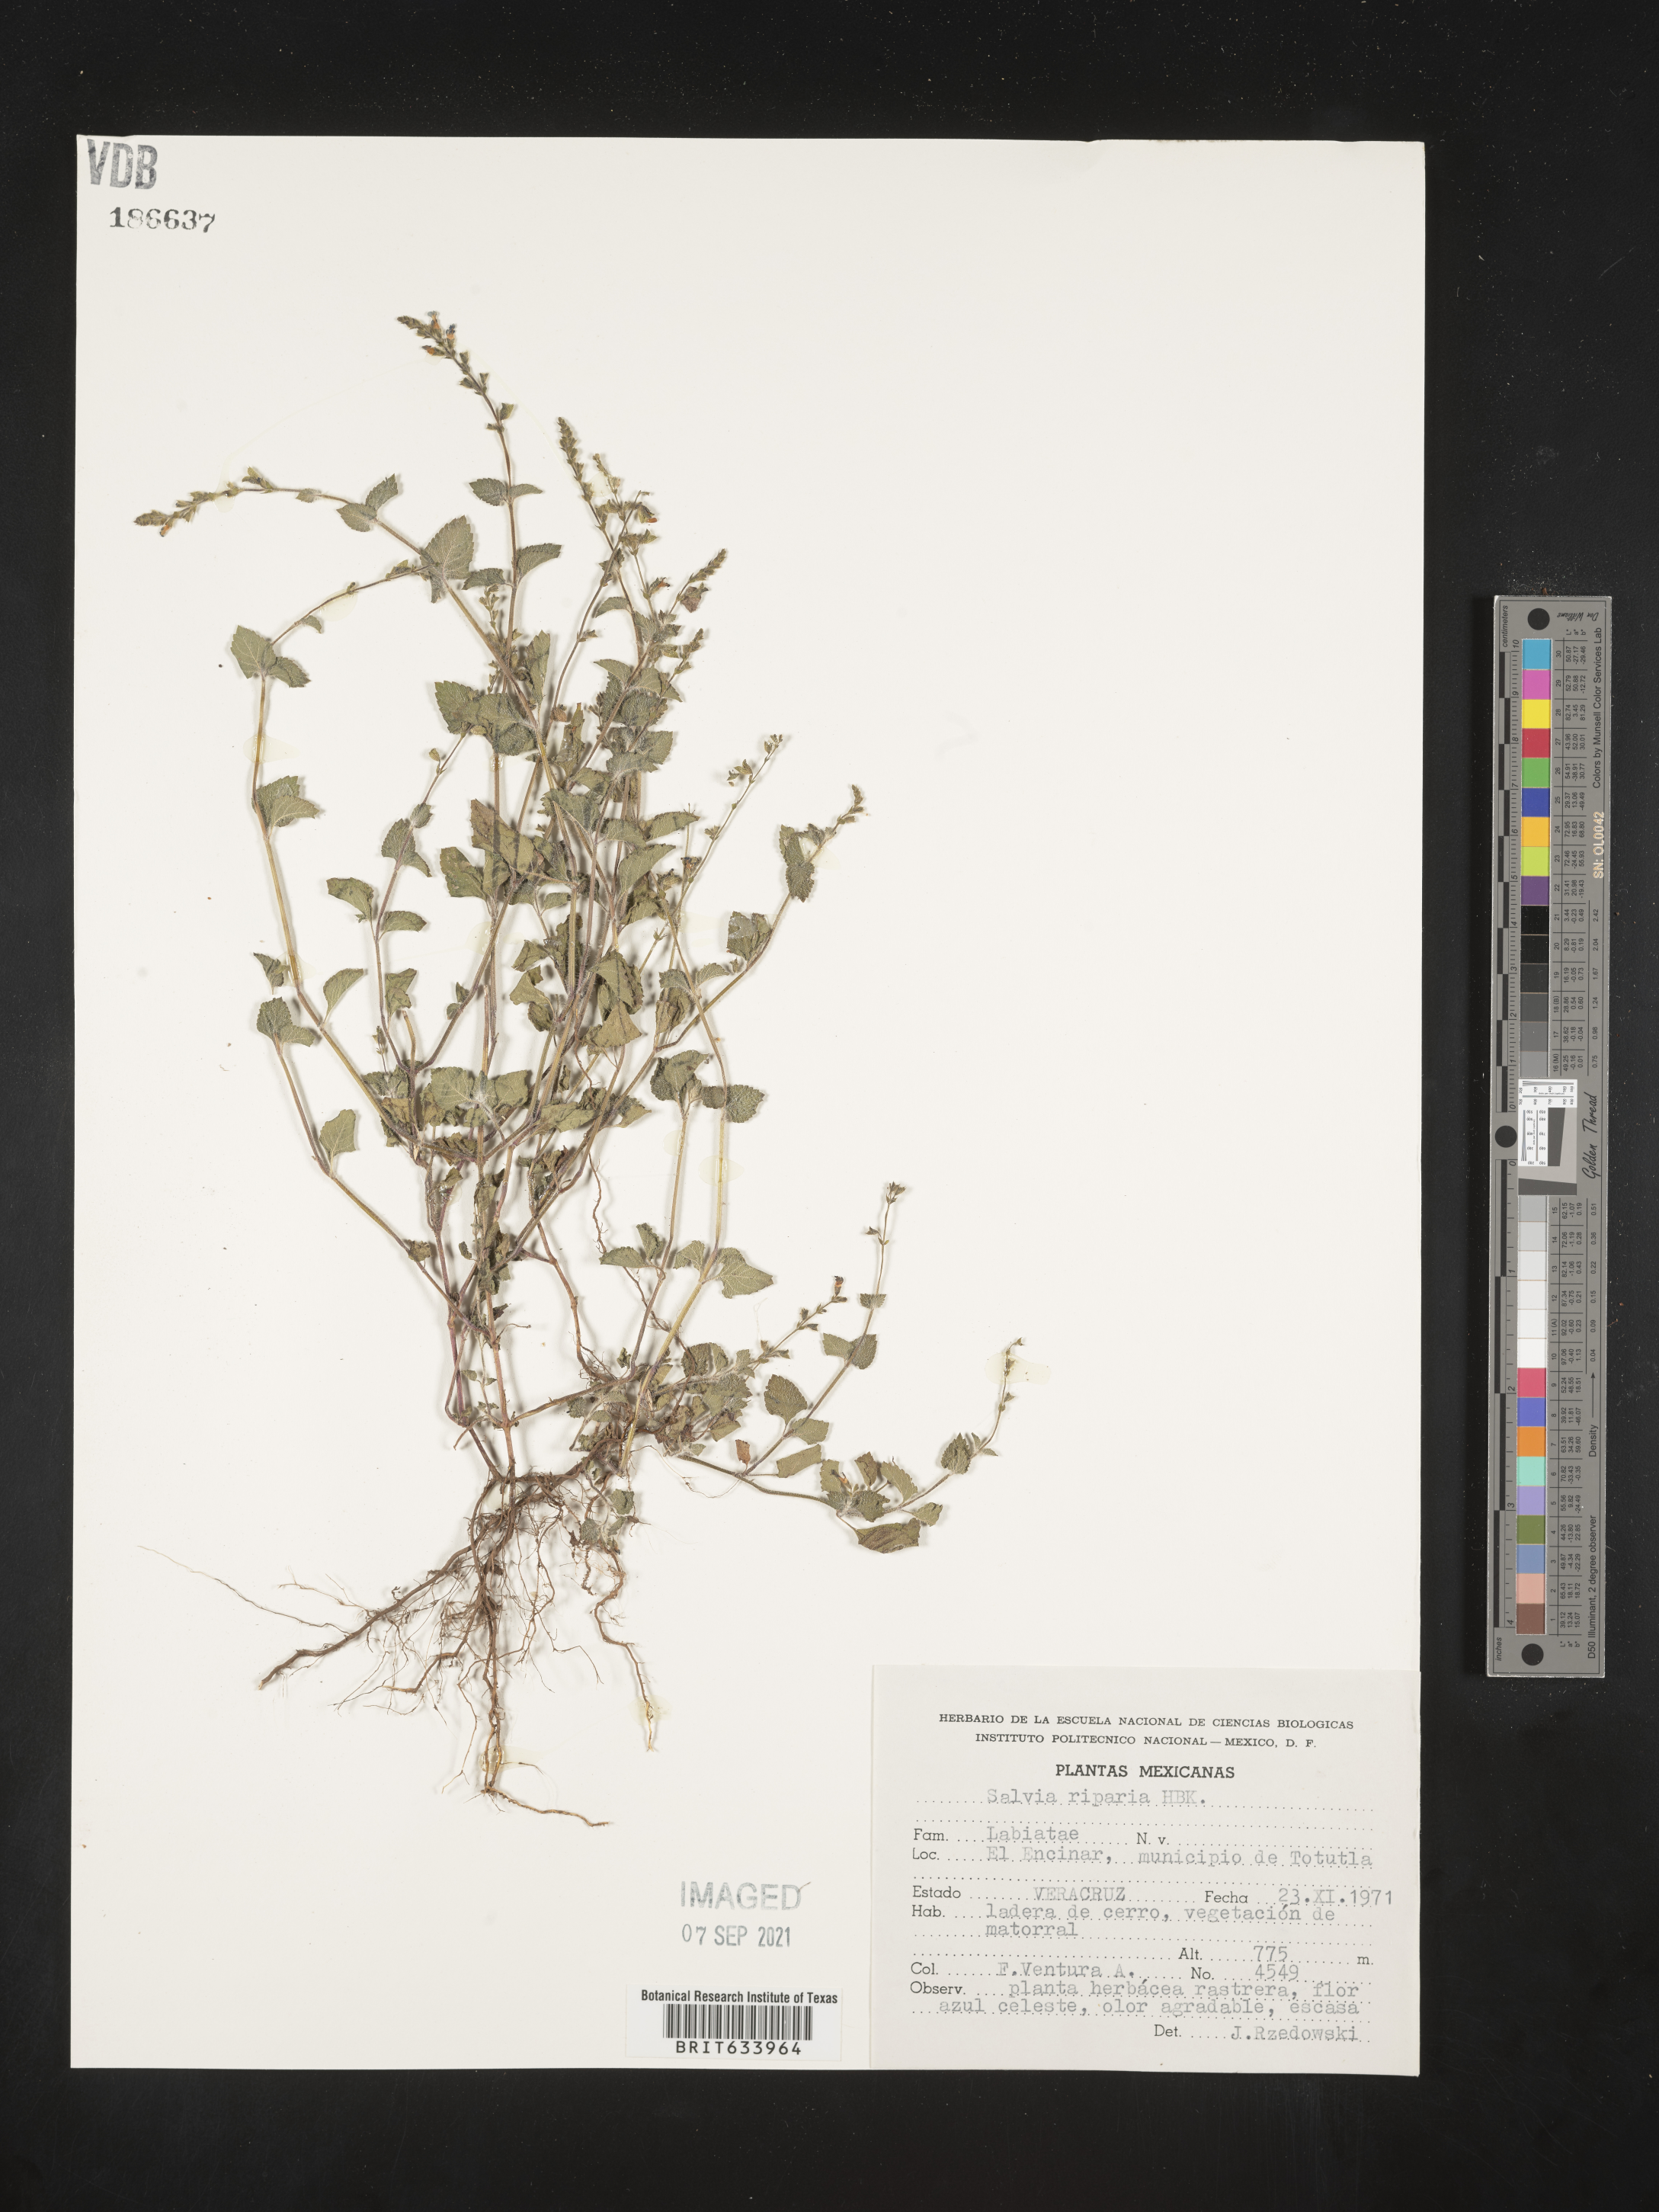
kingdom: Plantae
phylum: Tracheophyta
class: Magnoliopsida
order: Lamiales
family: Lamiaceae
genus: Salvia
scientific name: Salvia
